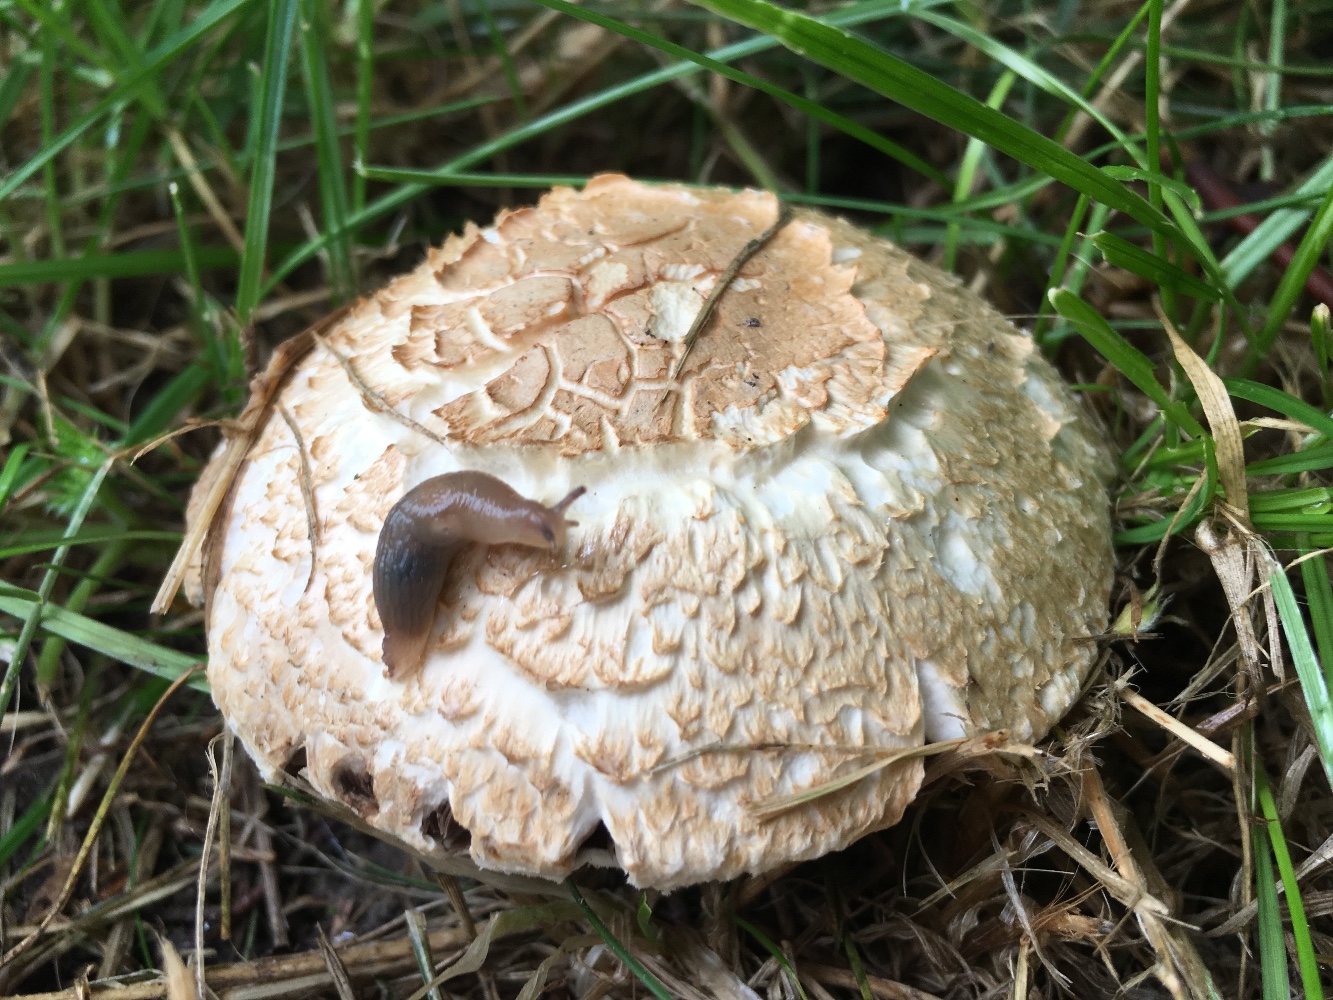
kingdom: Fungi
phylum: Basidiomycota
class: Agaricomycetes
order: Agaricales
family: Agaricaceae
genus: Agaricus
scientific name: Agaricus xanthodermus
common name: karbol-champignon
